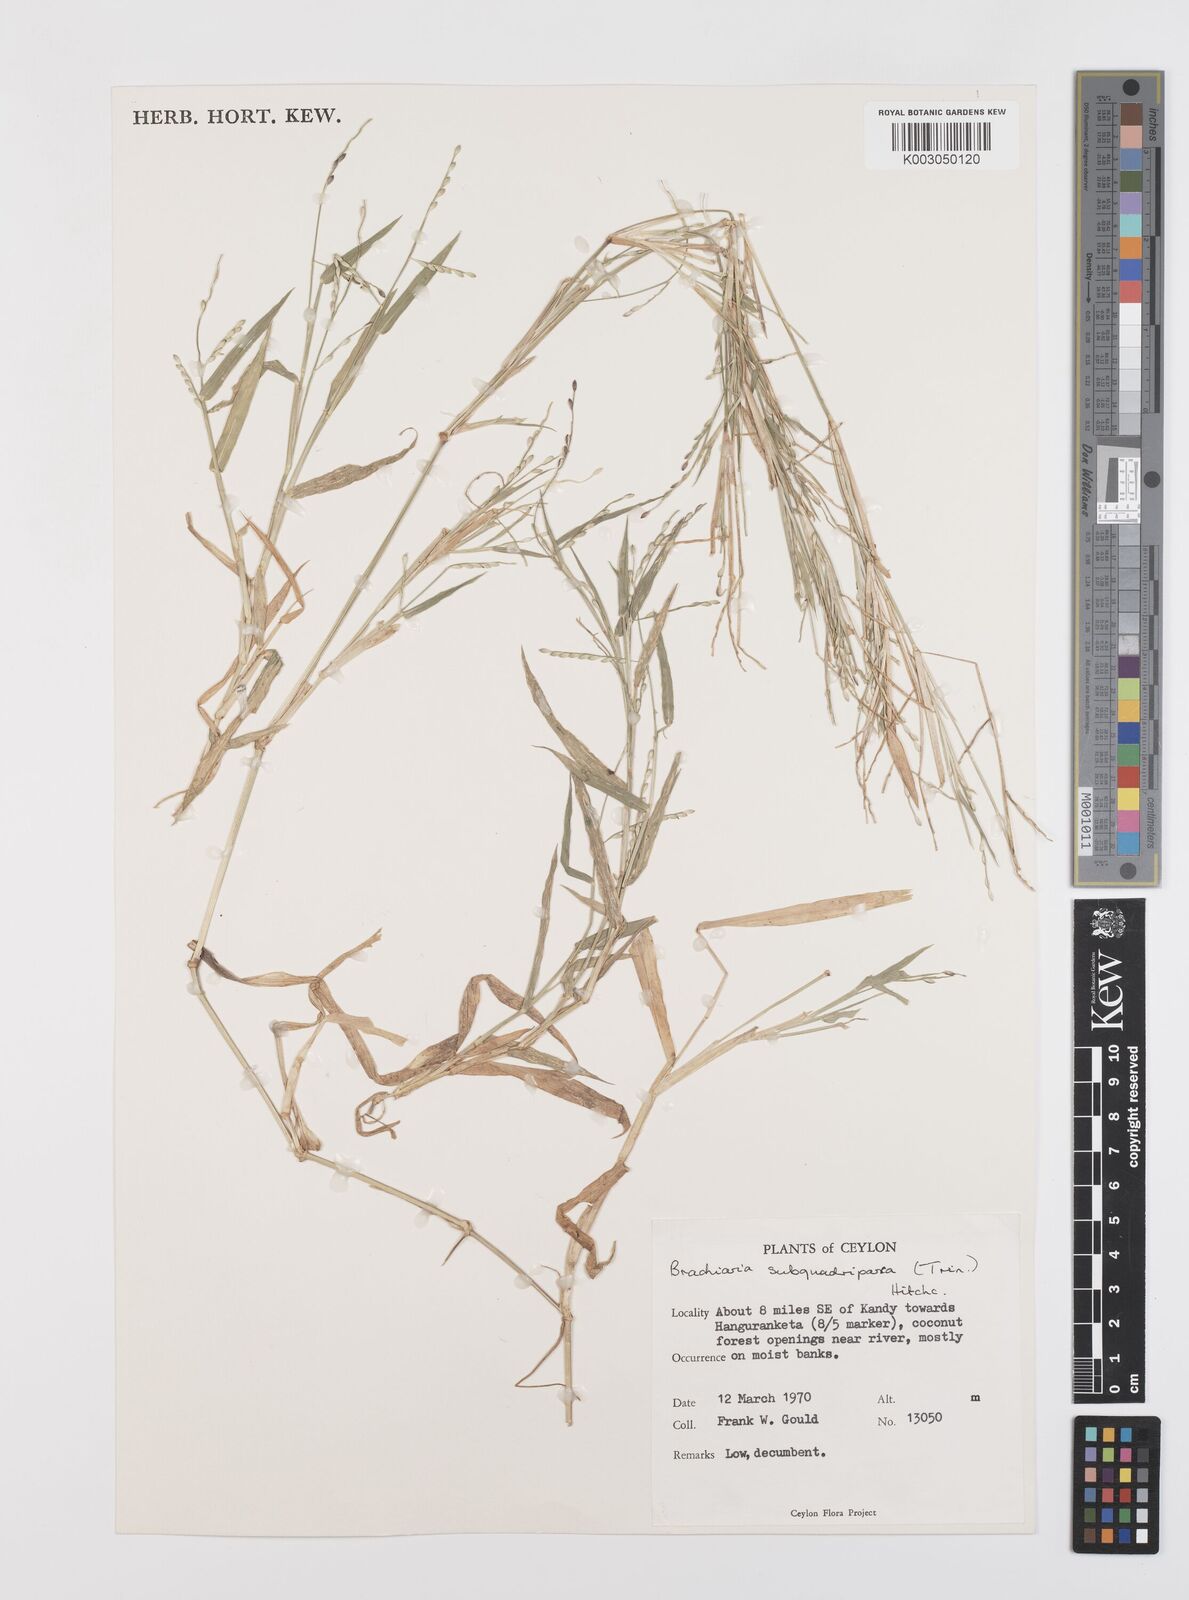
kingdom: Plantae
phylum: Tracheophyta
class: Liliopsida
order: Poales
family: Poaceae
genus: Urochloa
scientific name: Urochloa subquadripara
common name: Armgrass millet
